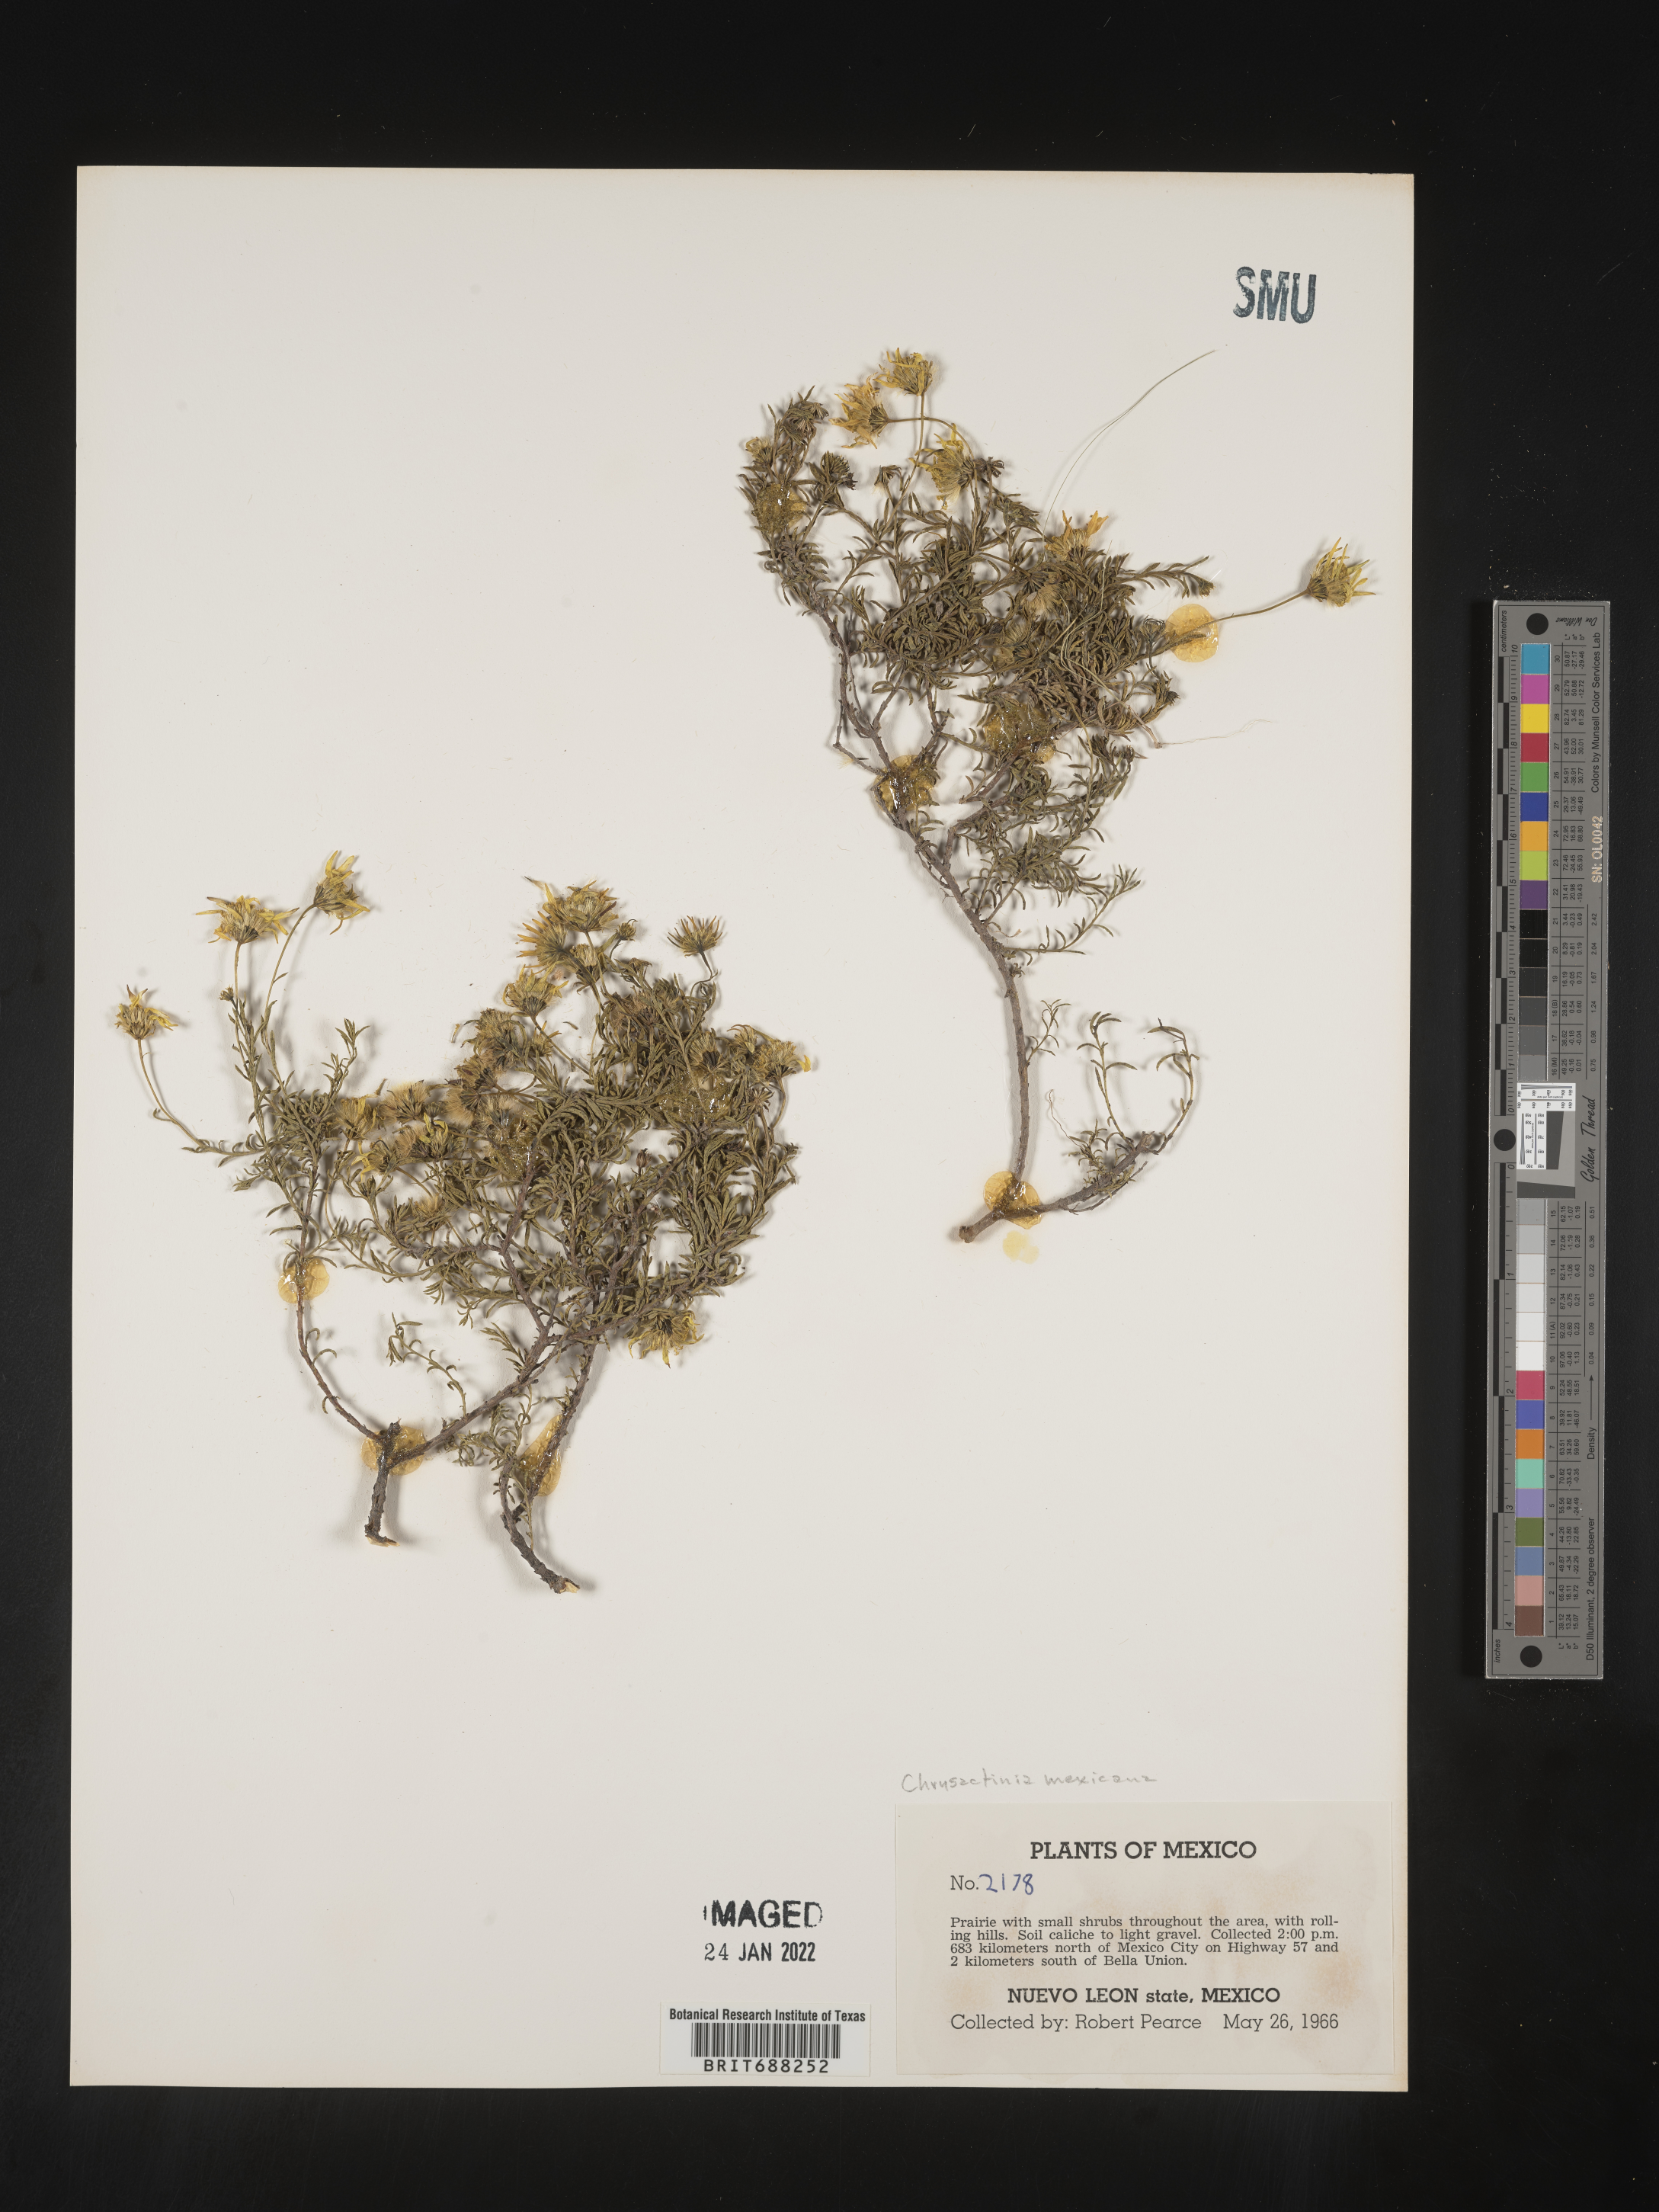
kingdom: Plantae
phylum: Tracheophyta
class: Magnoliopsida
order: Asterales
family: Asteraceae
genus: Chrysactinia
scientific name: Chrysactinia
